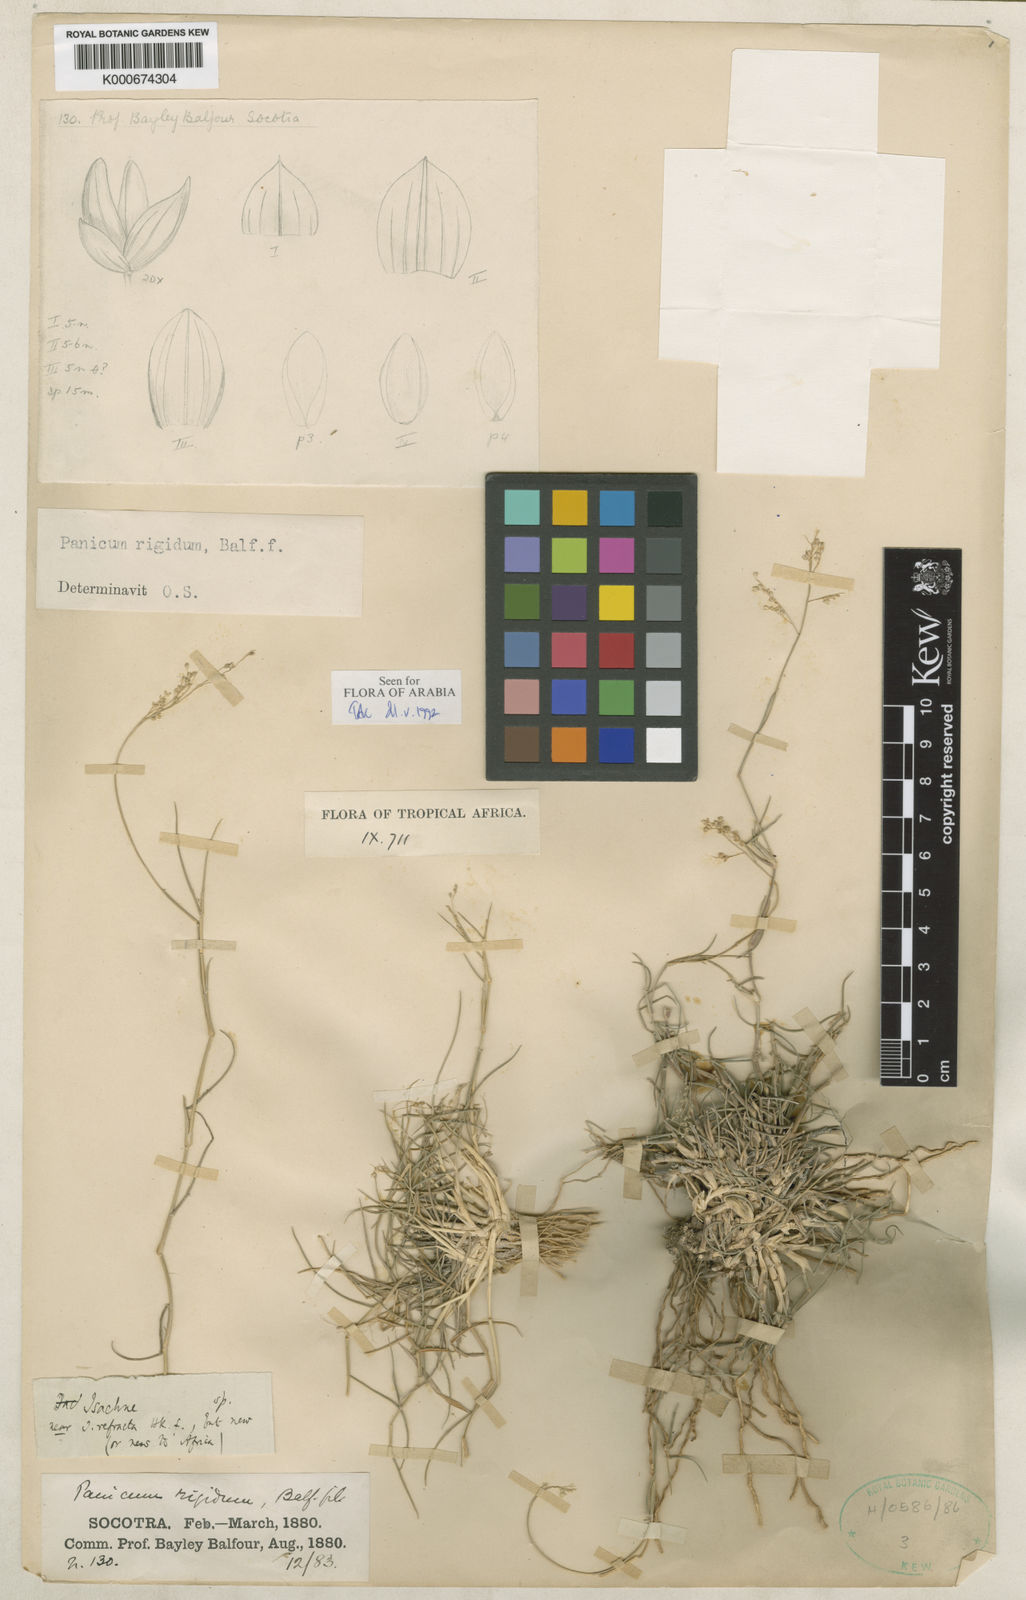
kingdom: Plantae
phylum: Tracheophyta
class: Liliopsida
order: Poales
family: Poaceae
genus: Panicum
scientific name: Panicum rigidum
